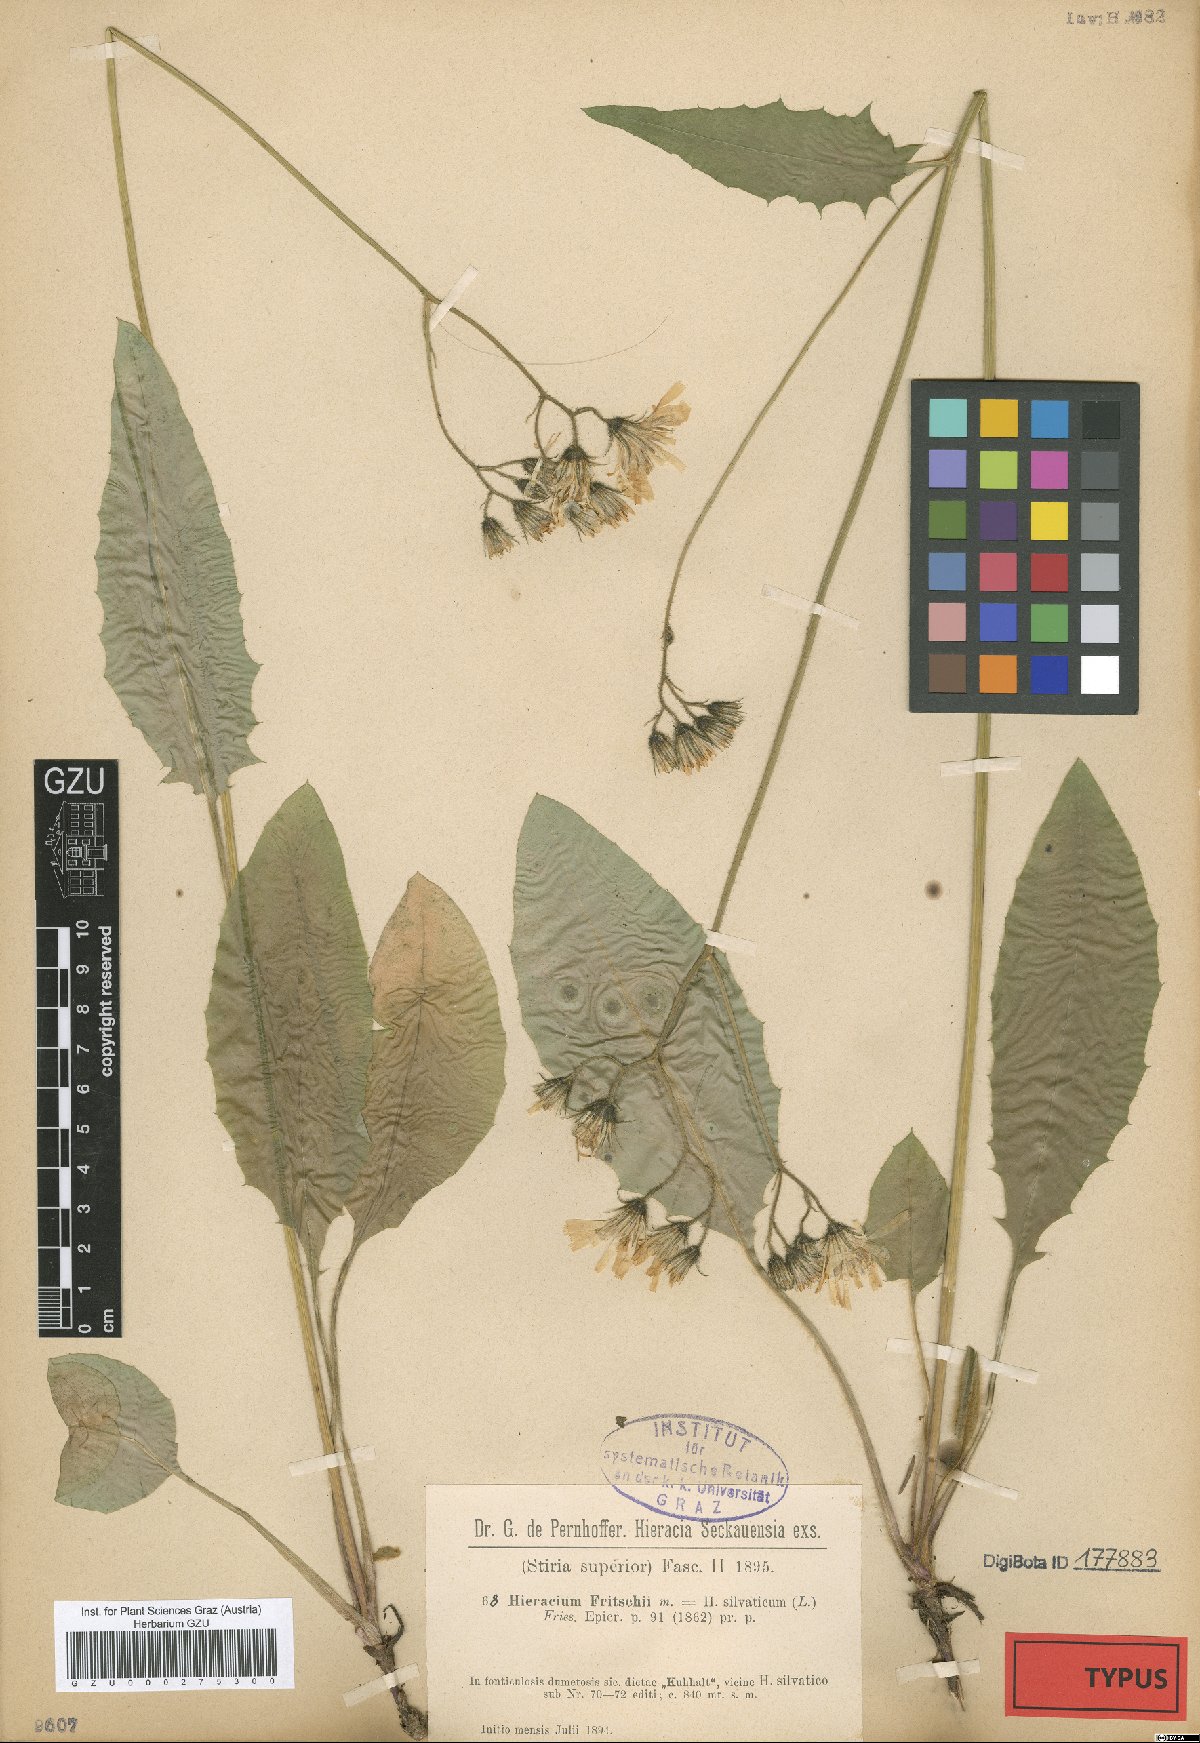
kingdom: Plantae
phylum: Tracheophyta
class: Magnoliopsida
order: Asterales
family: Asteraceae
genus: Hieracium
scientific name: Hieracium murorum
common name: Wall hawkweed
